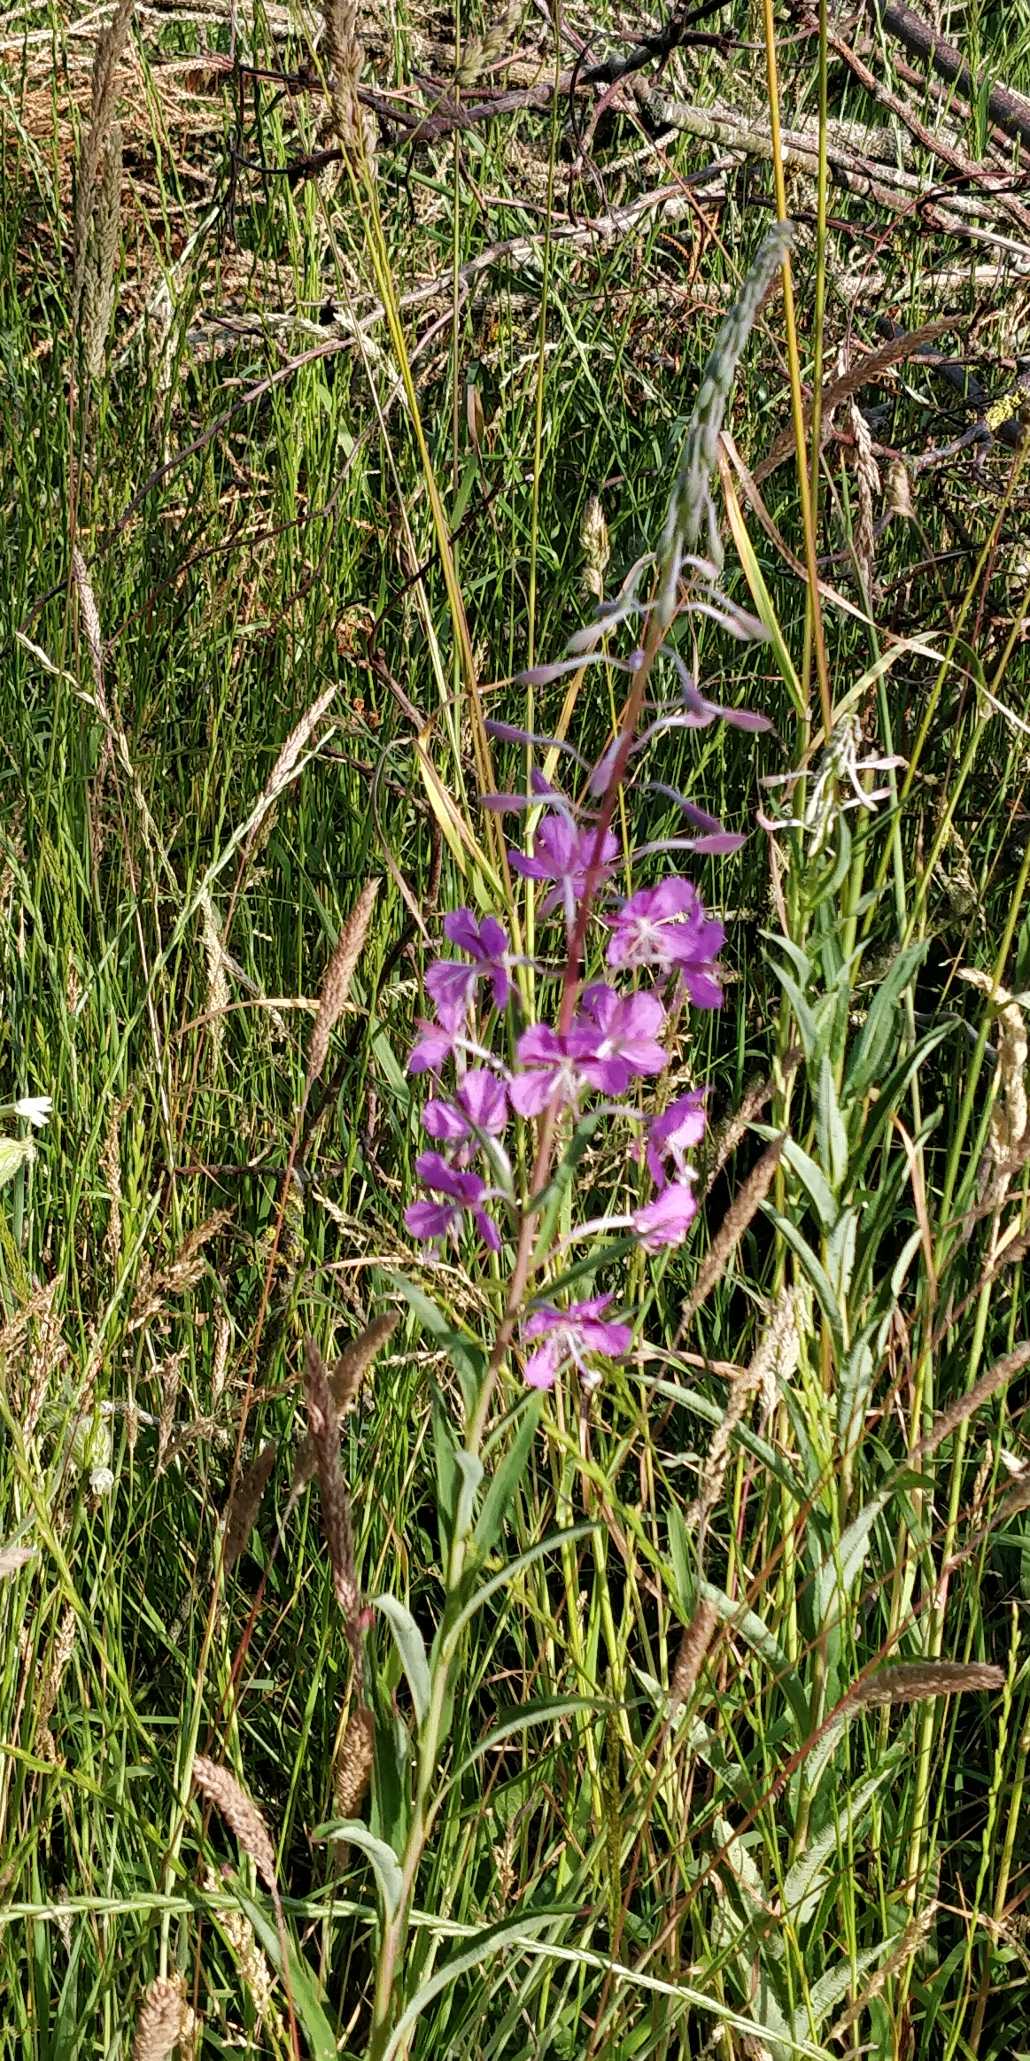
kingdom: Plantae
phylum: Tracheophyta
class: Magnoliopsida
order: Myrtales
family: Onagraceae
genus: Chamaenerion
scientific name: Chamaenerion angustifolium
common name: Gederams
